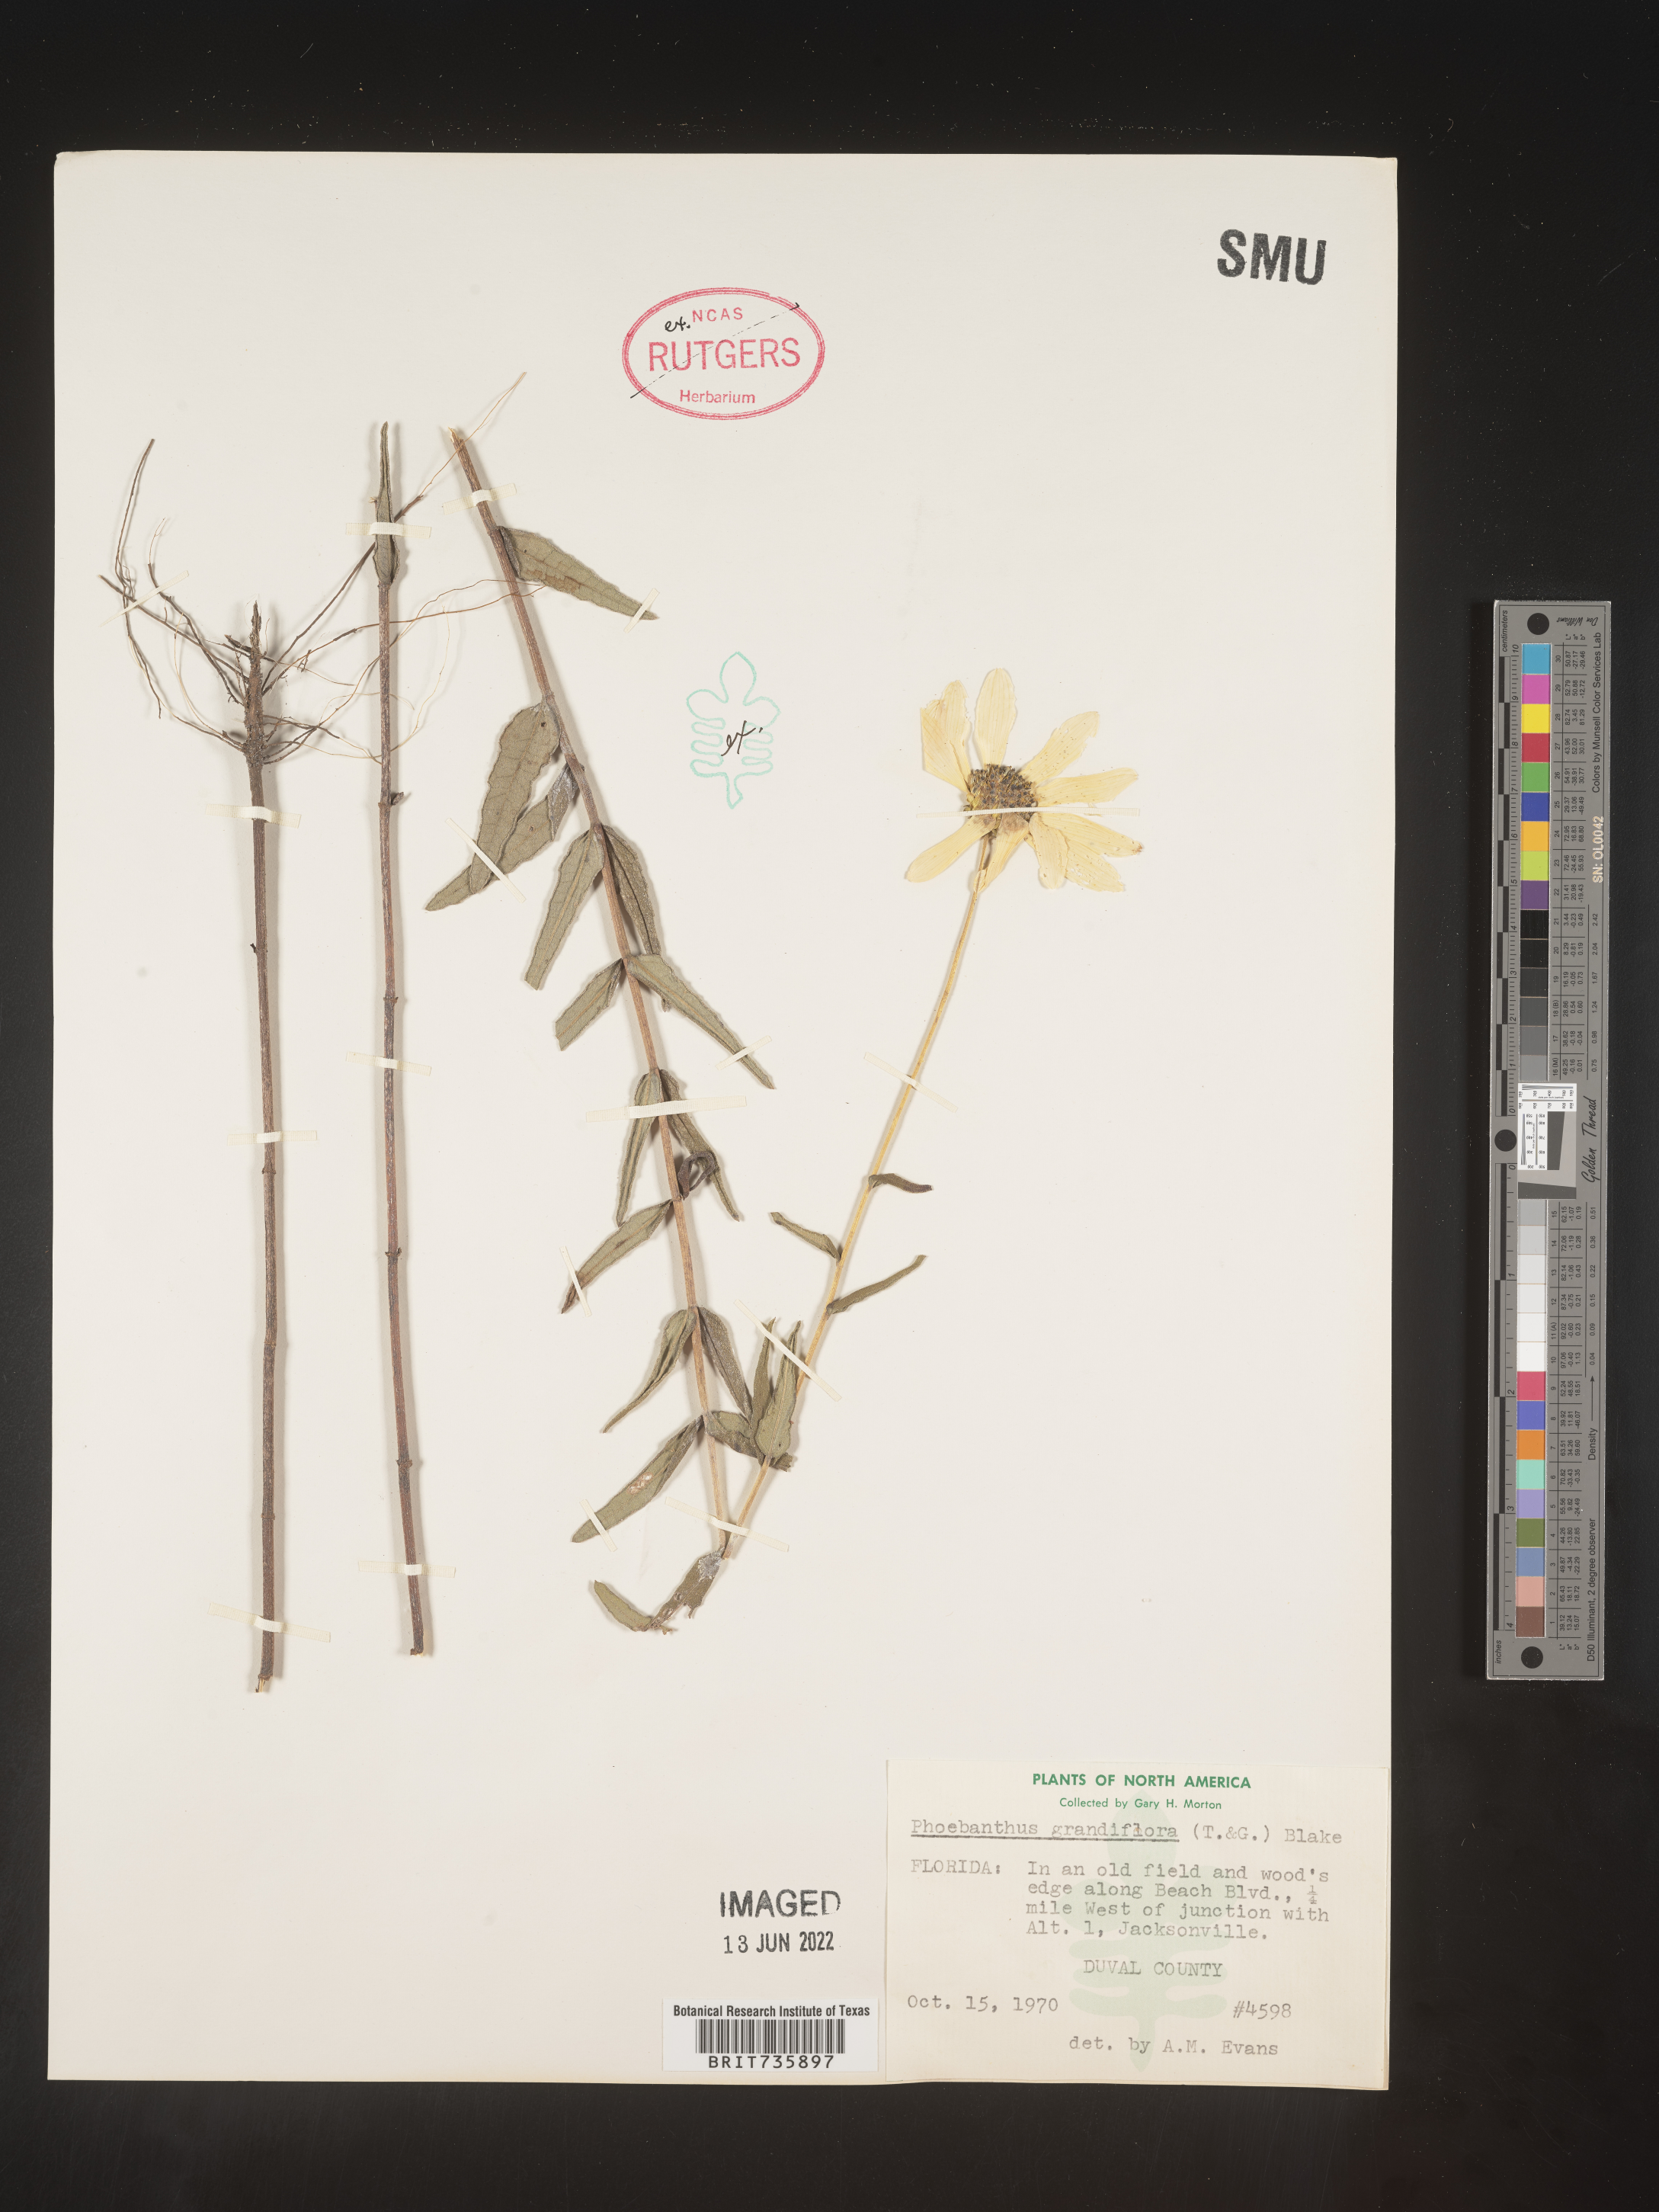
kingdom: Plantae
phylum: Tracheophyta
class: Magnoliopsida
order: Asterales
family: Asteraceae
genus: Phoebanthus
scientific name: Phoebanthus grandiflora
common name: Florida false sunflower
